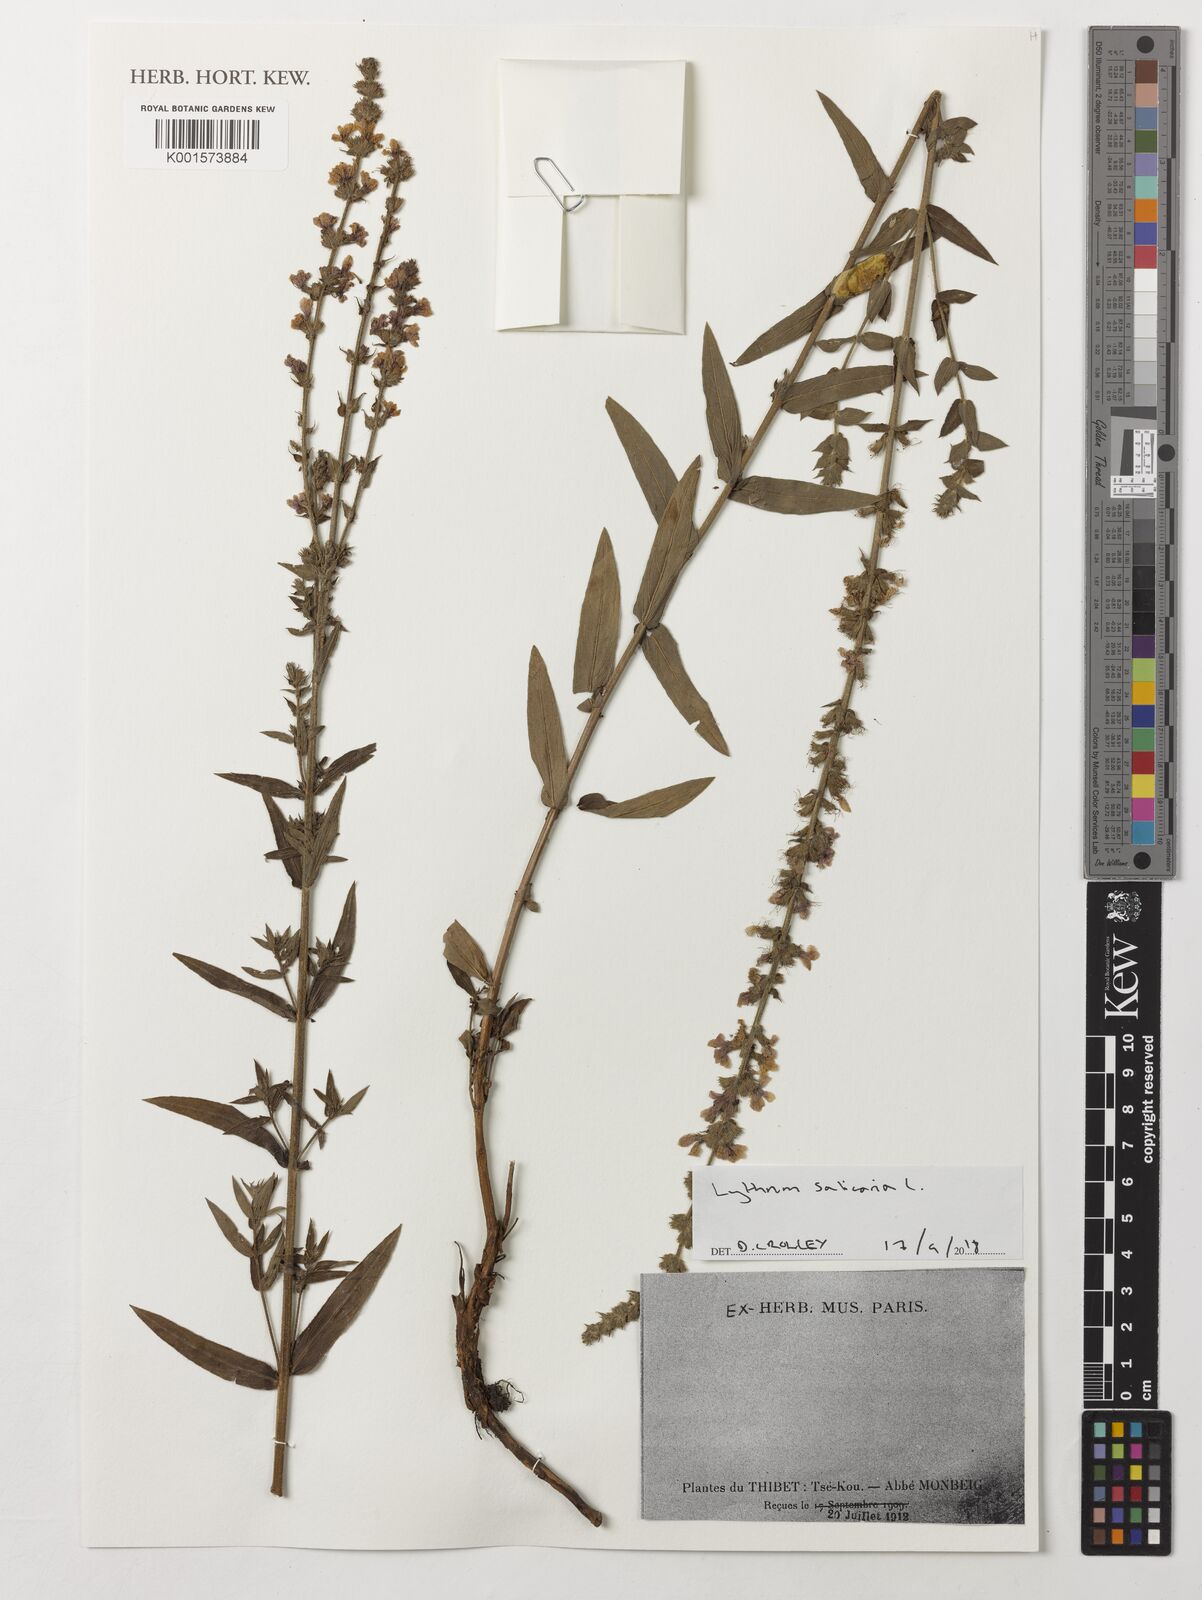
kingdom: Plantae
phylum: Tracheophyta
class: Magnoliopsida
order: Myrtales
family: Lythraceae
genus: Lythrum
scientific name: Lythrum salicaria
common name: Purple loosestrife
